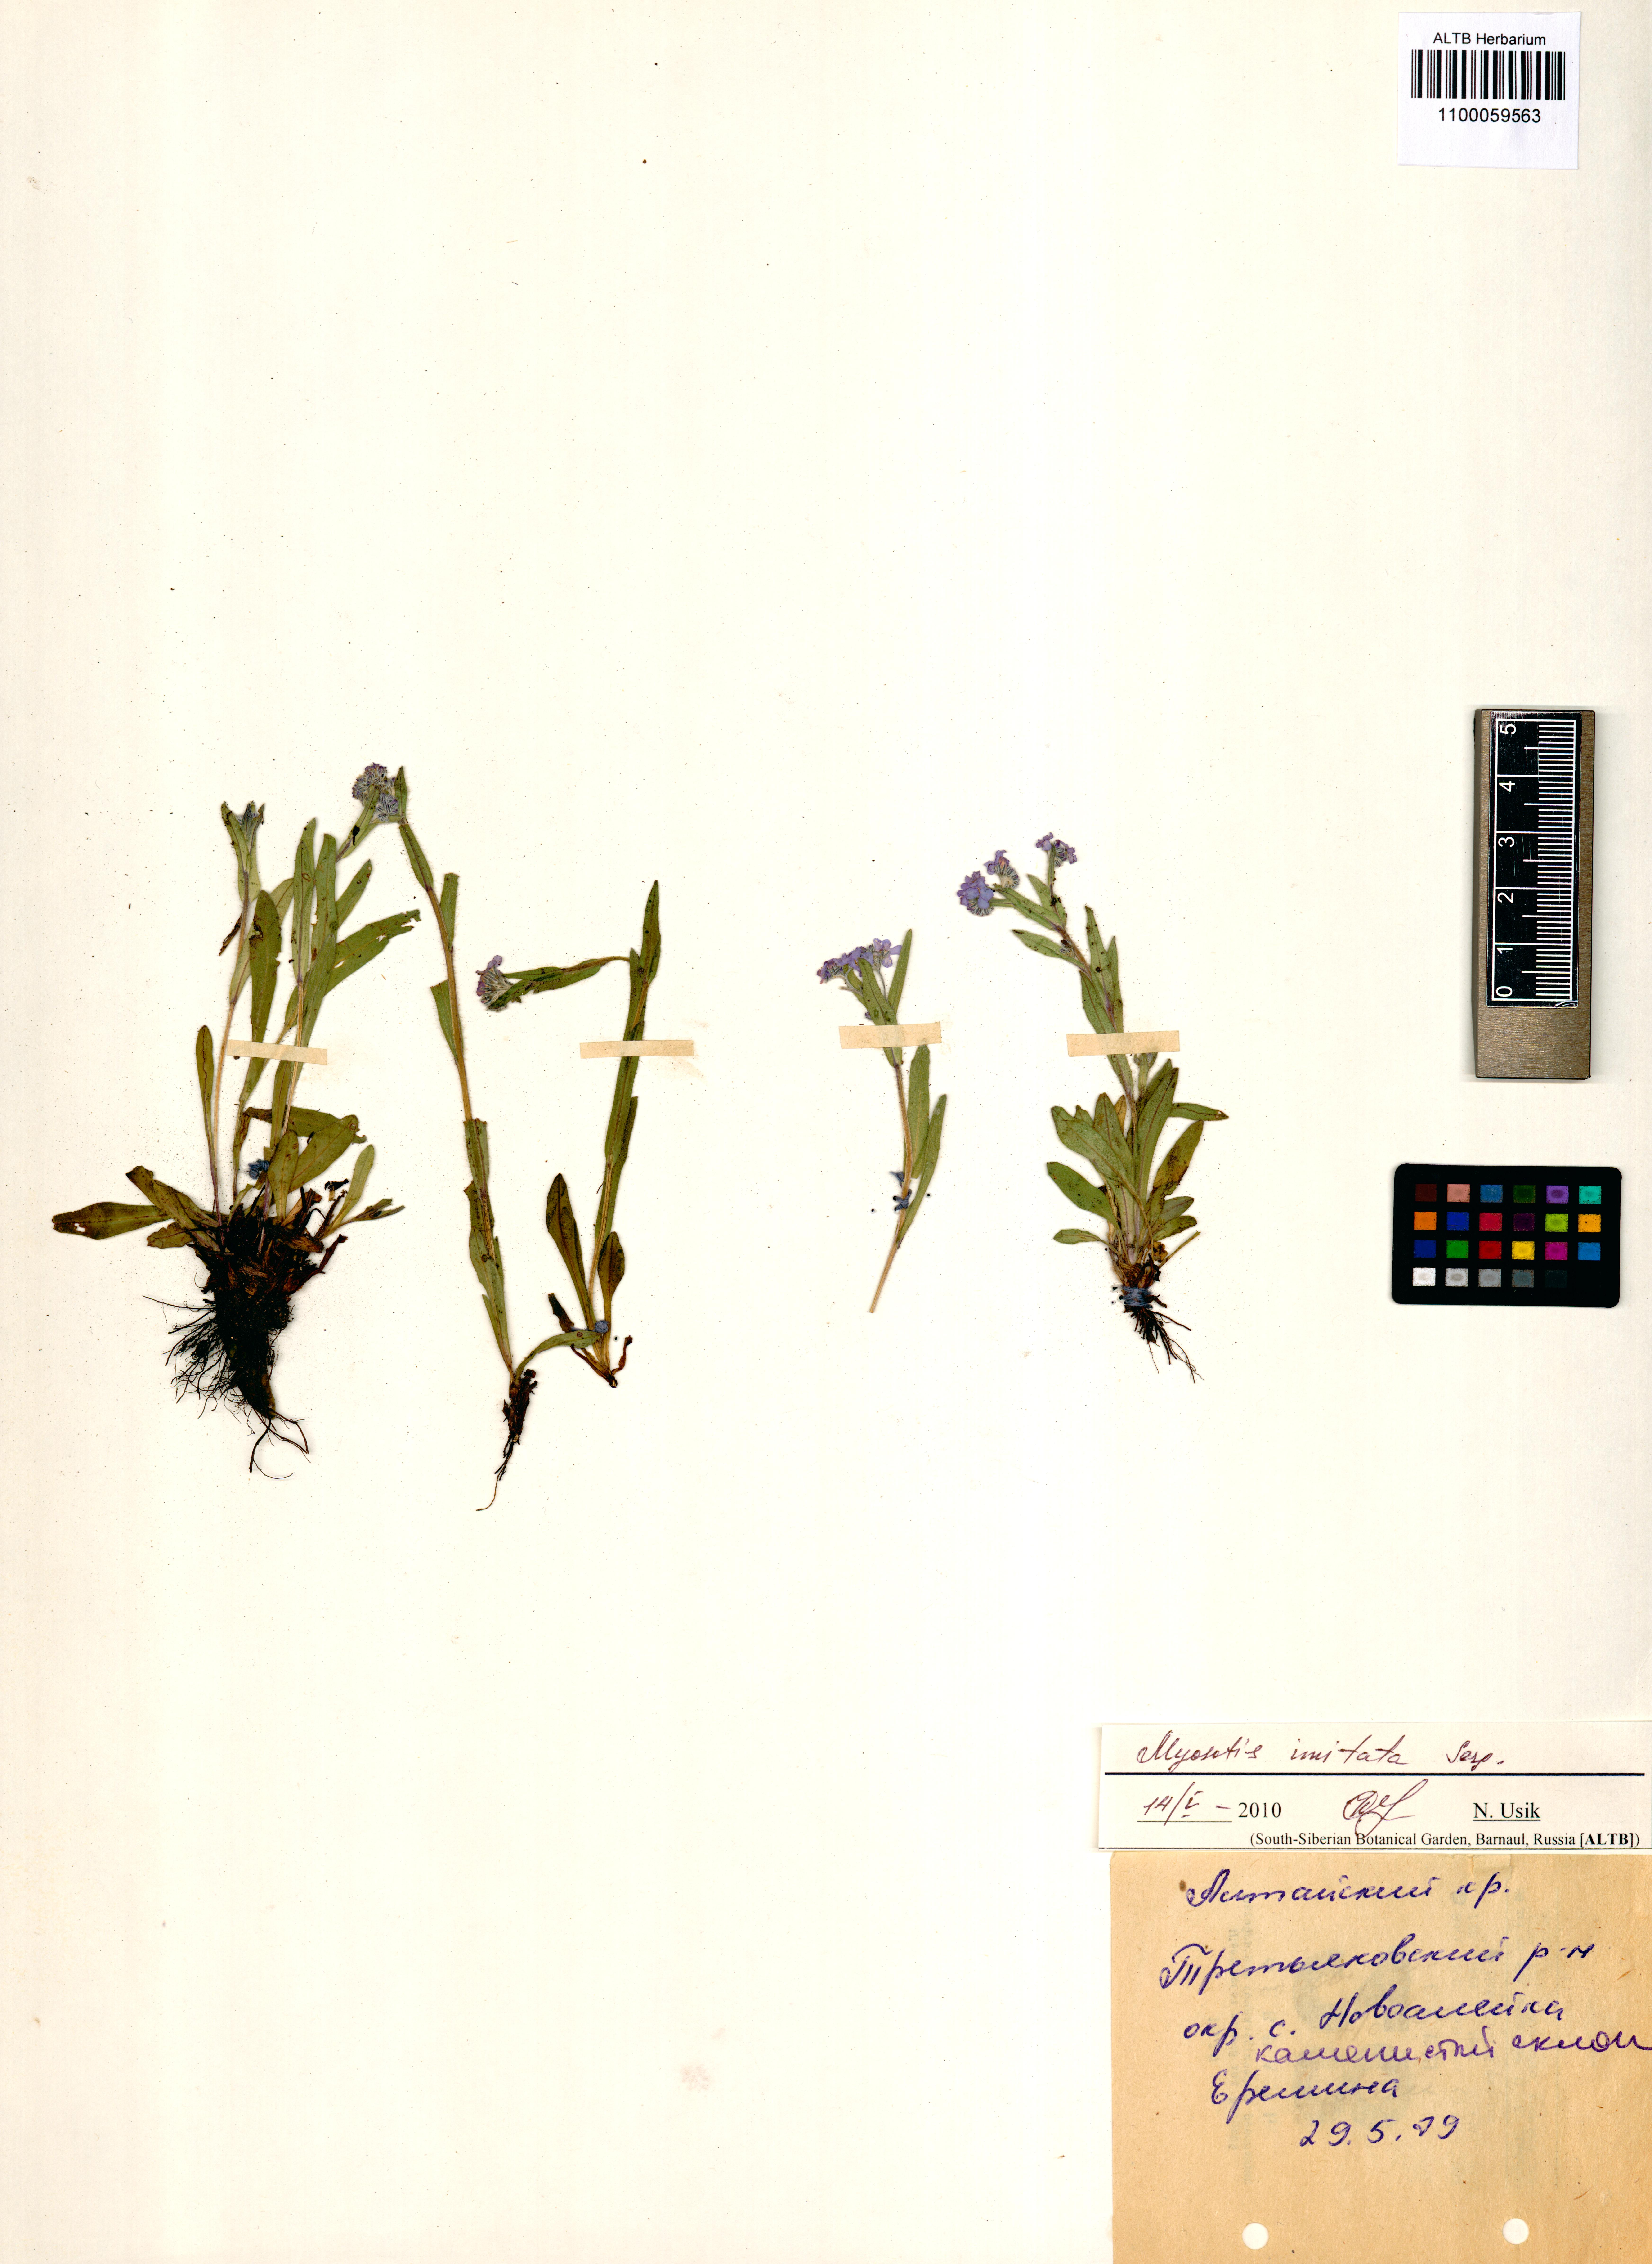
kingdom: Plantae
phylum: Tracheophyta
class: Magnoliopsida
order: Boraginales
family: Boraginaceae
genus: Myosotis
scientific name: Myosotis imitata
